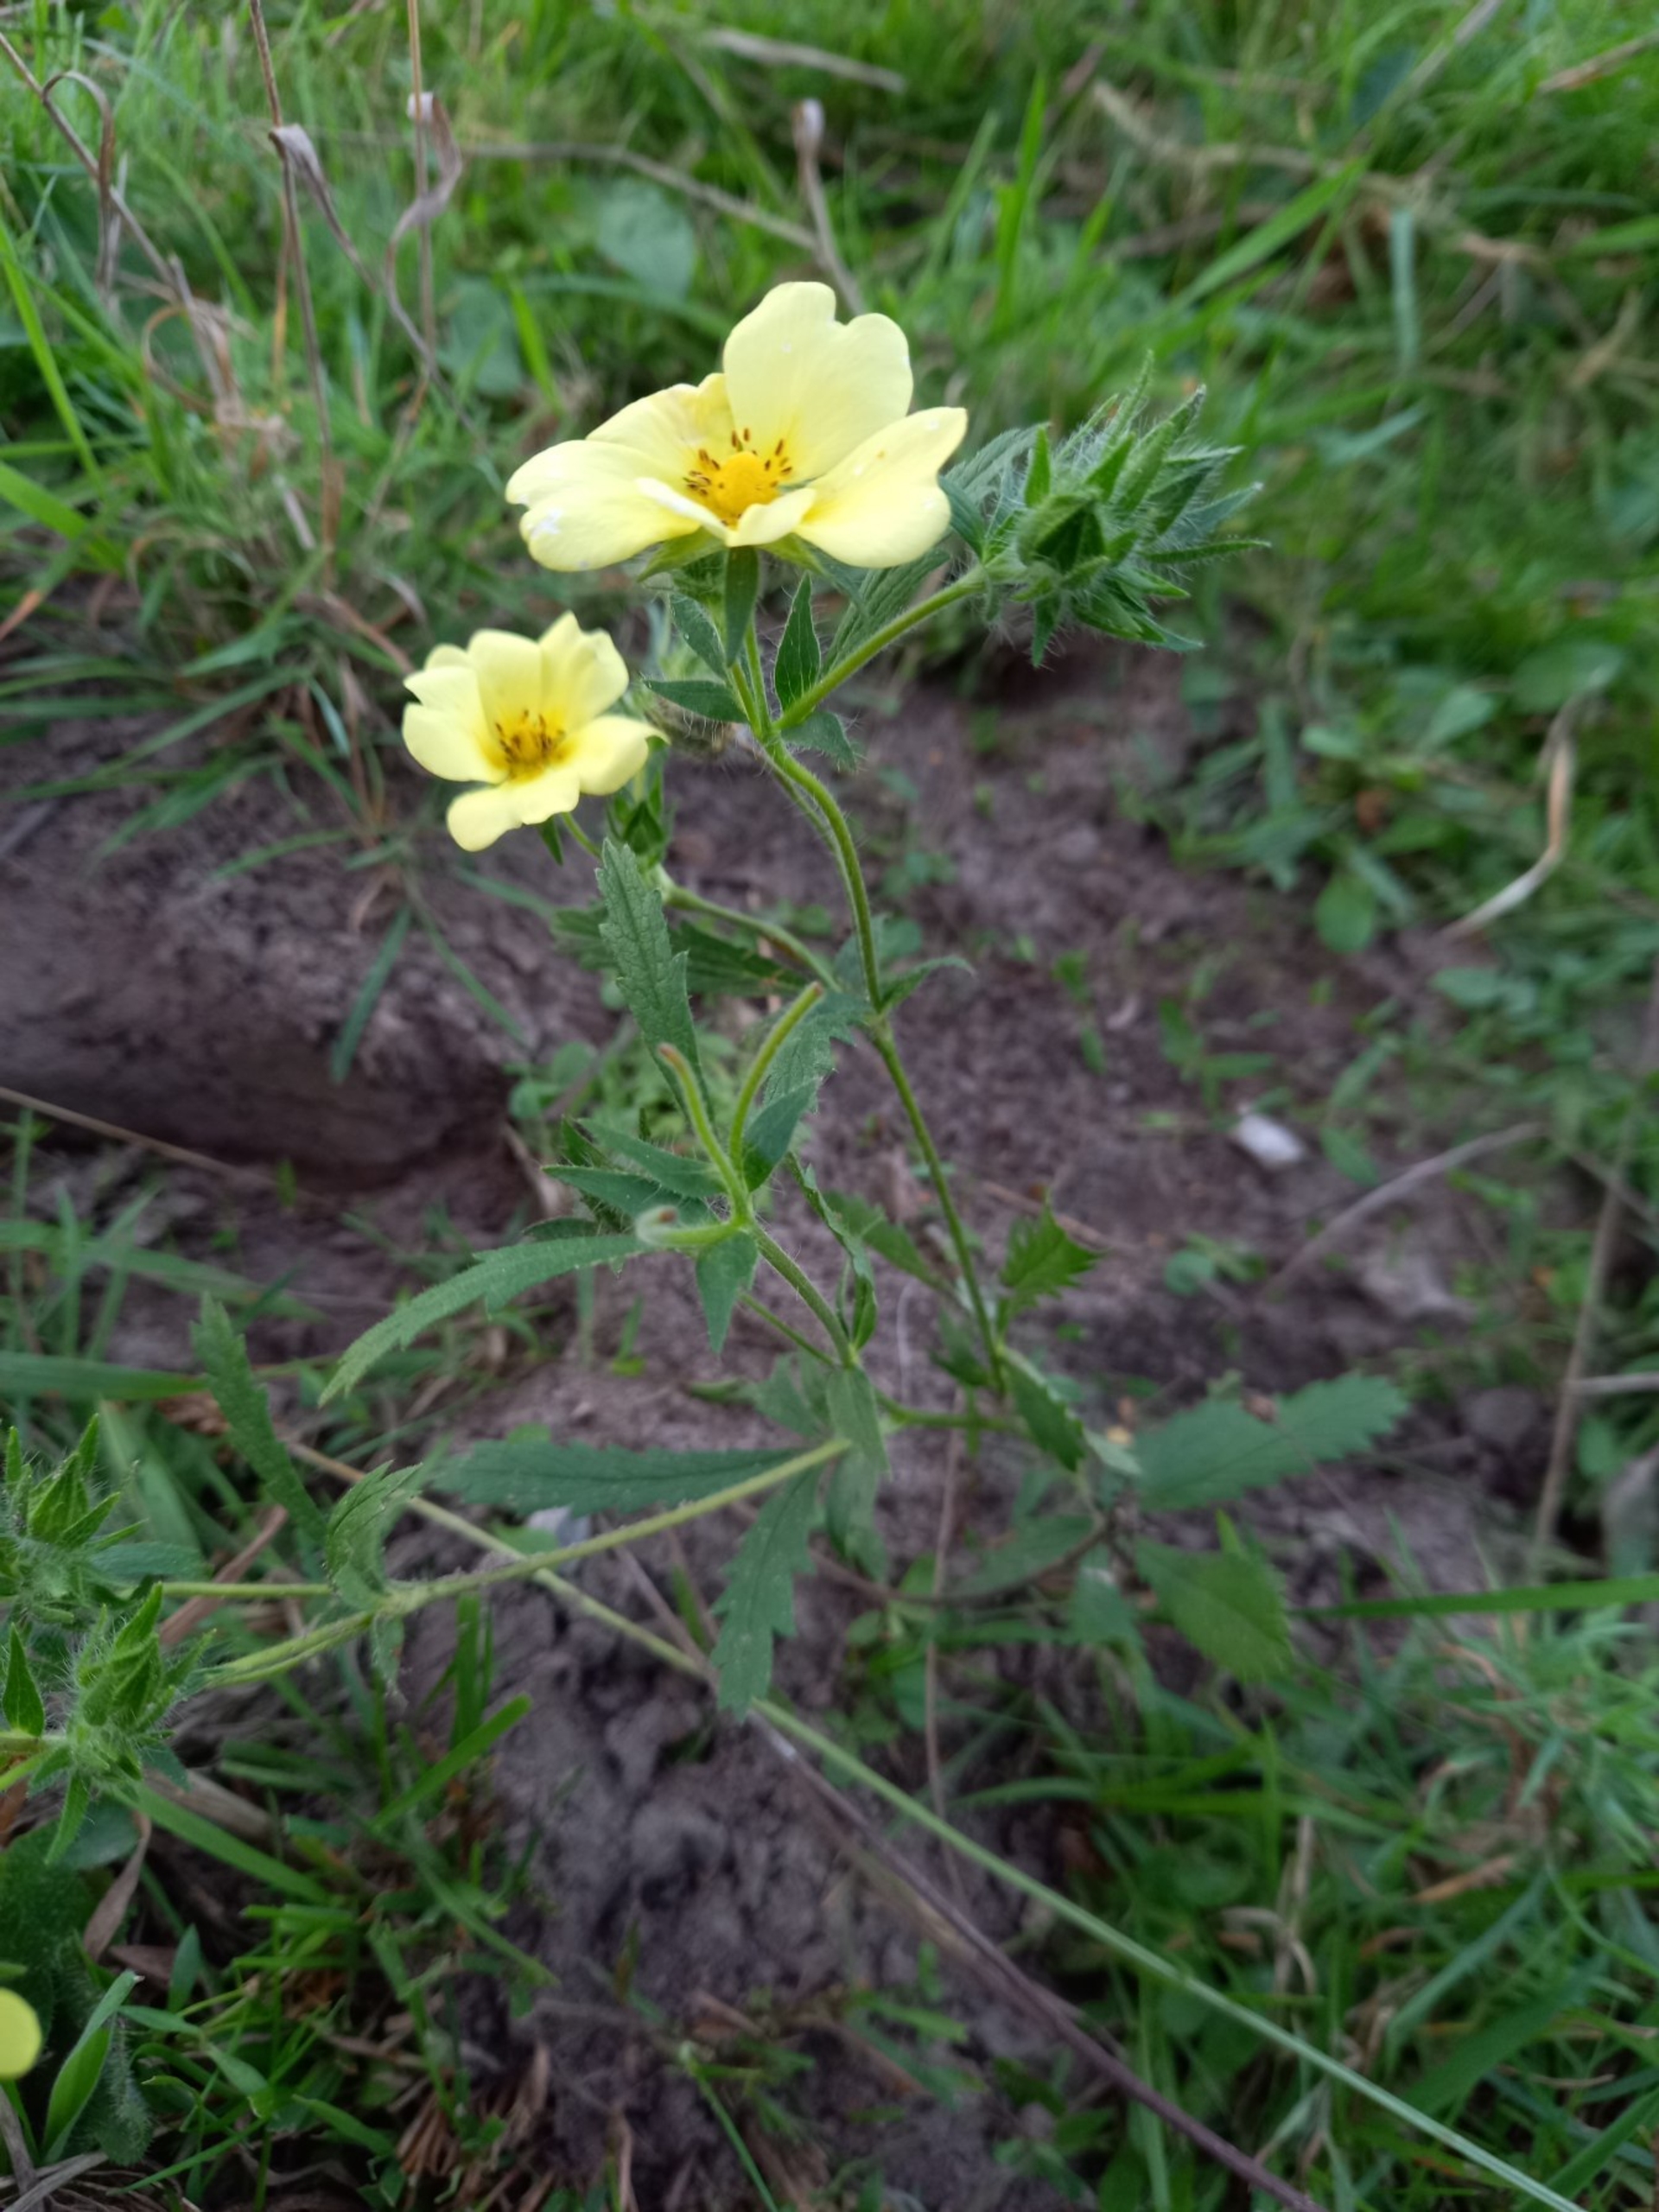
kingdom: Plantae
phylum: Tracheophyta
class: Magnoliopsida
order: Rosales
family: Rosaceae
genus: Potentilla
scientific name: Potentilla recta
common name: Rank potentil
